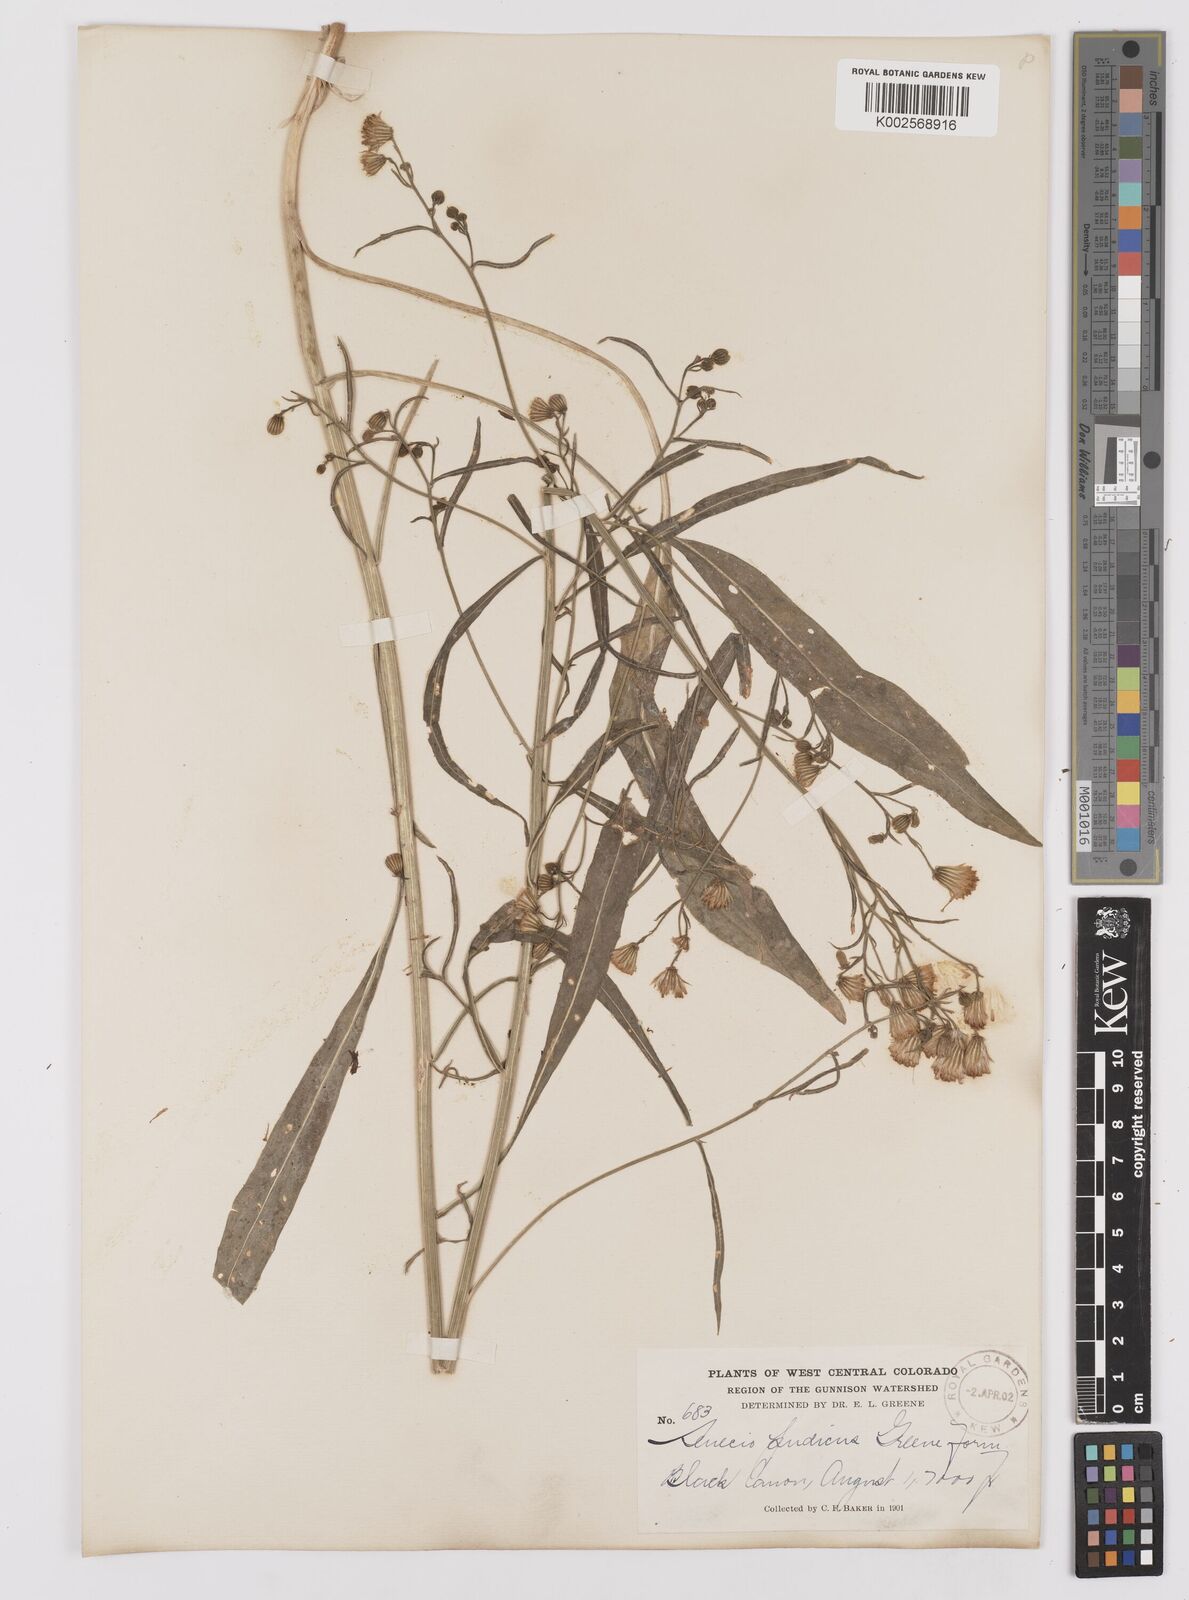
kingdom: Plantae
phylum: Tracheophyta
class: Magnoliopsida
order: Asterales
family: Asteraceae
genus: Senecio
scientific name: Senecio pudicus
